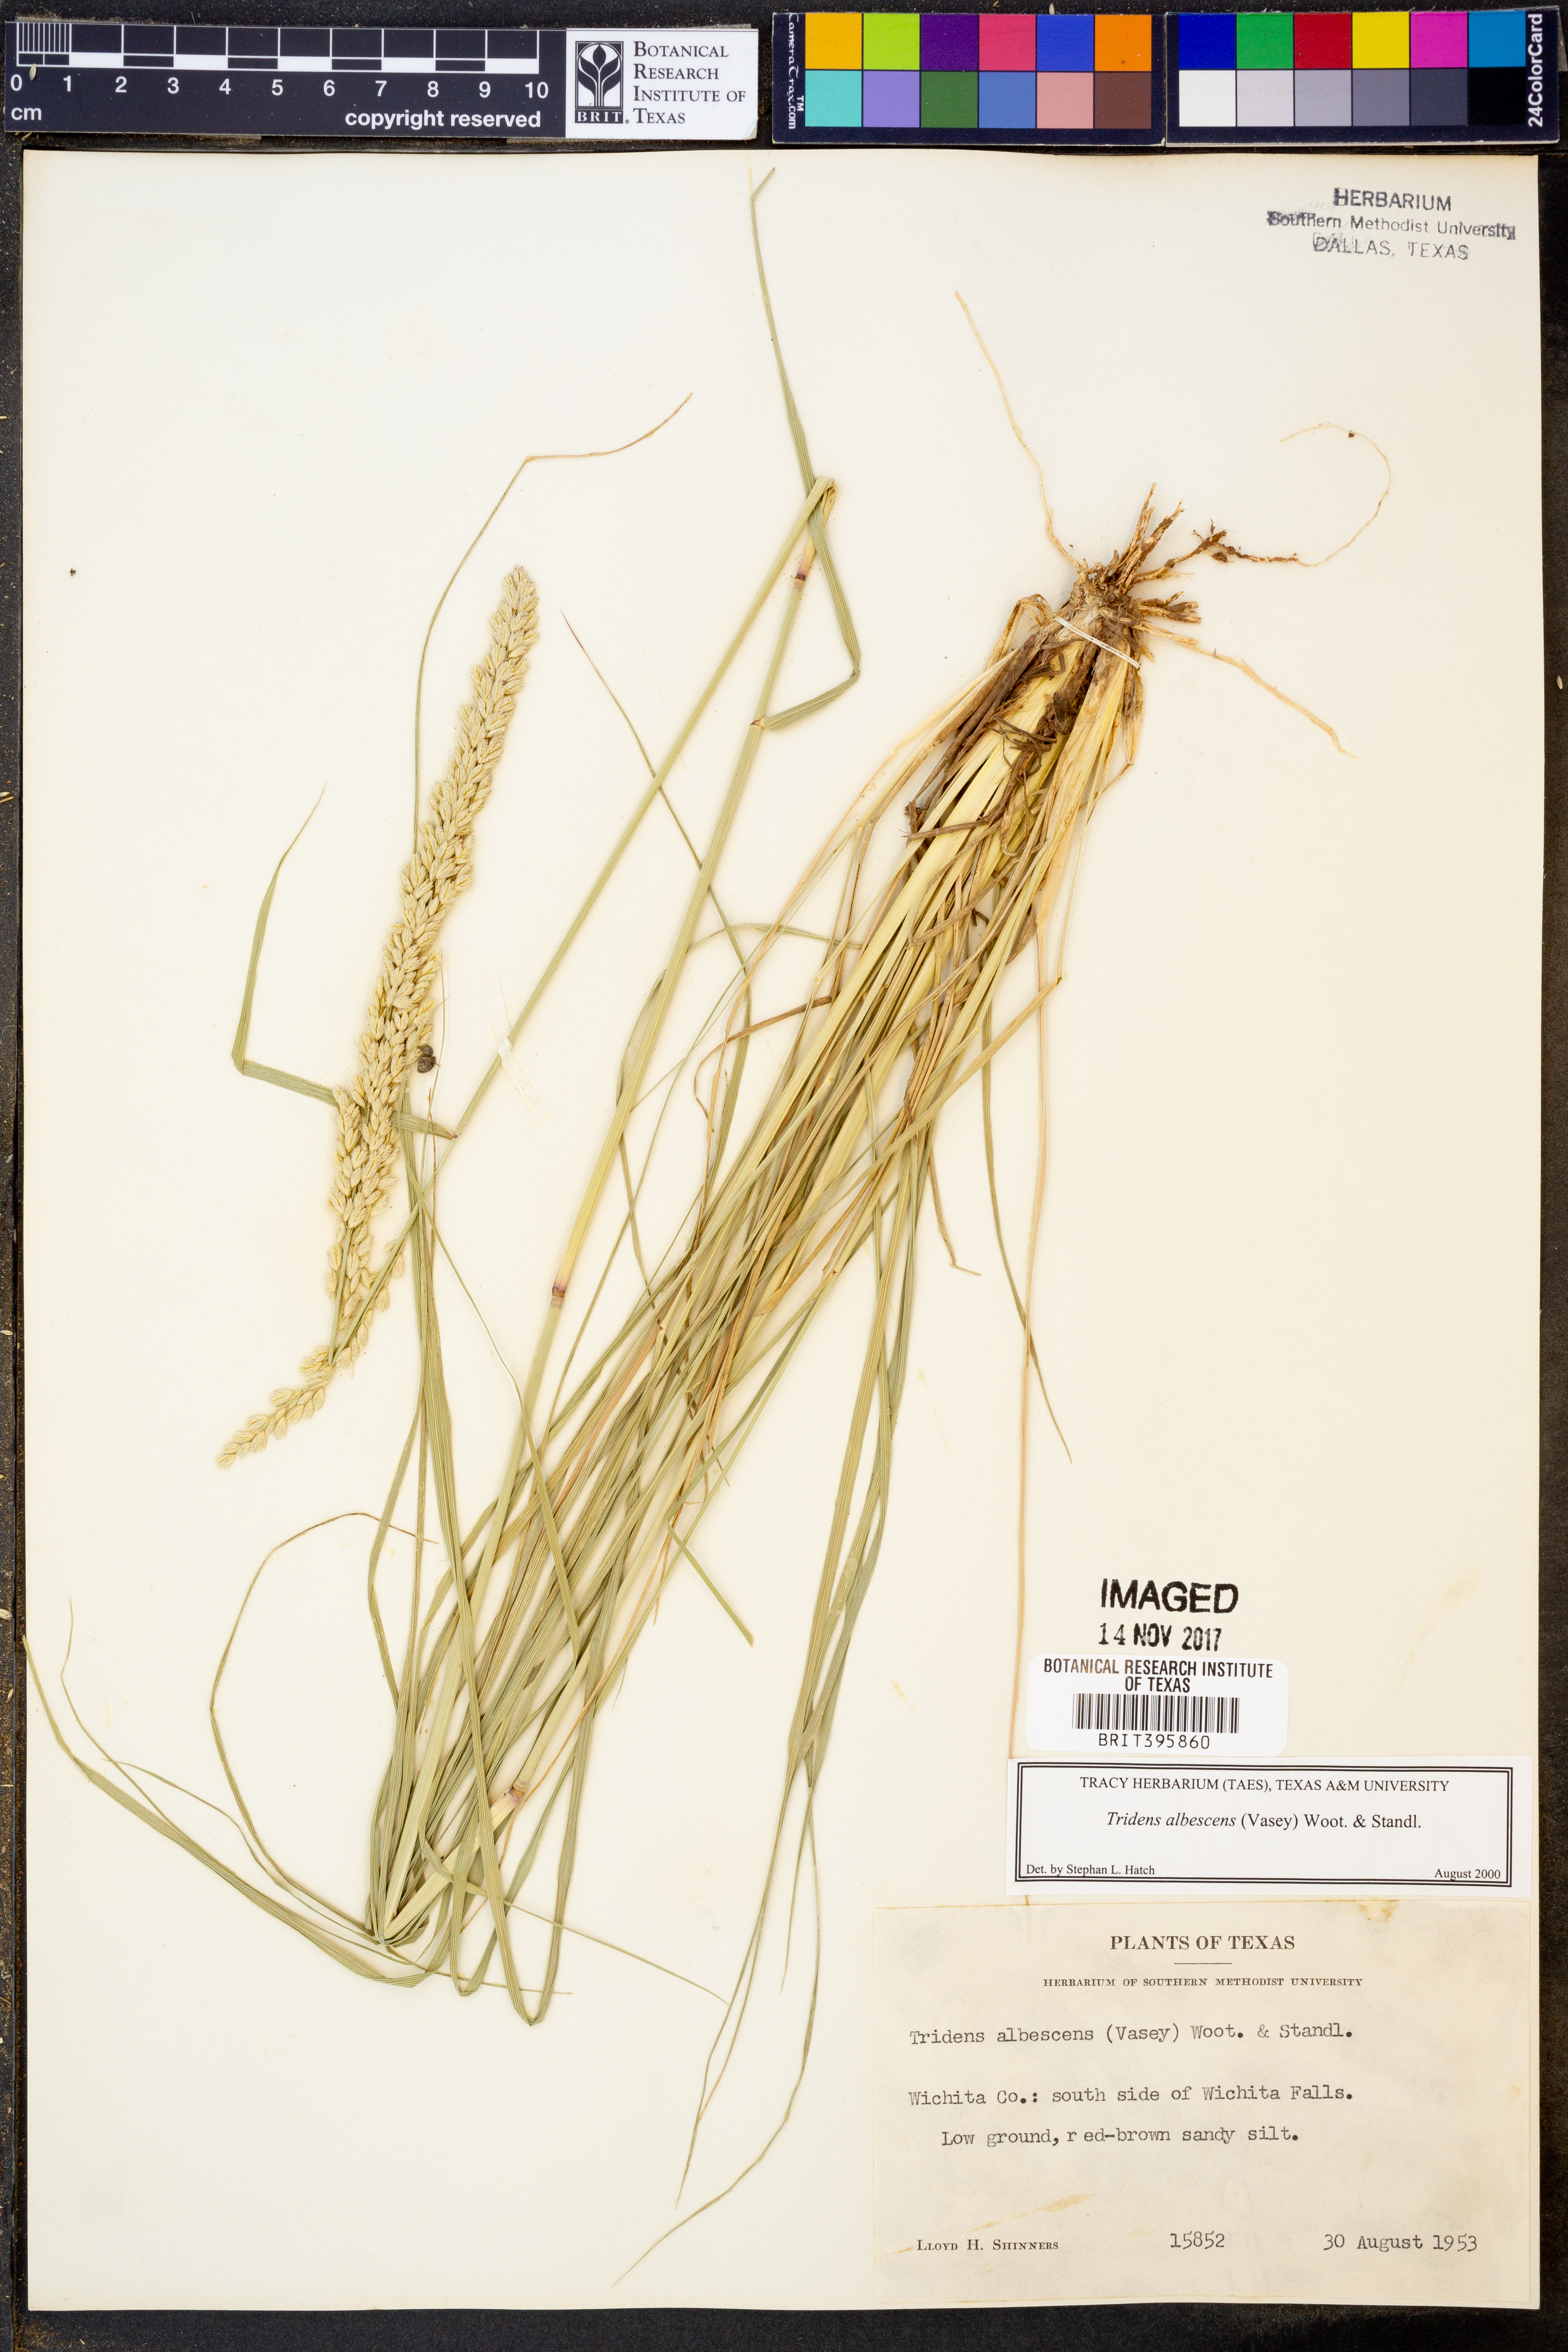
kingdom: Plantae
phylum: Tracheophyta
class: Liliopsida
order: Poales
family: Poaceae
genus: Tridens
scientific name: Tridens albescens
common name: White tridens
